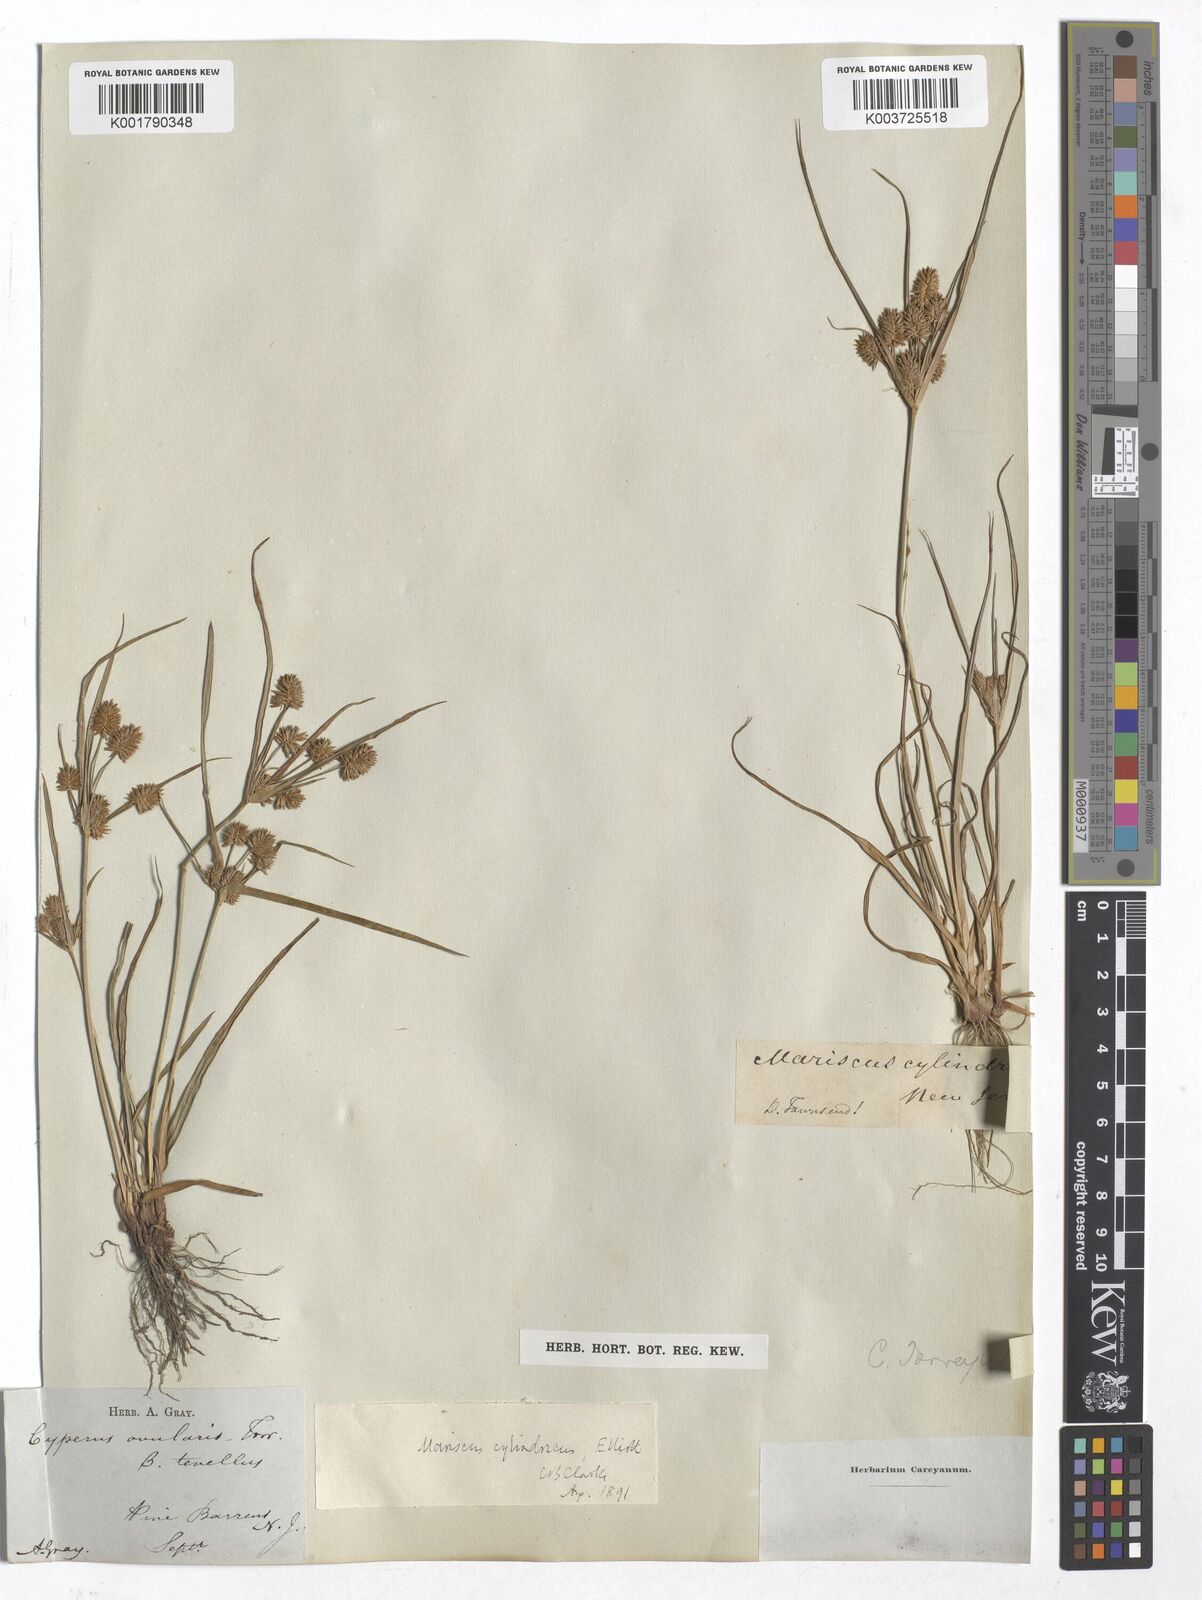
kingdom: Plantae
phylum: Tracheophyta
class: Liliopsida
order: Poales
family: Cyperaceae
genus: Cyperus
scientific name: Cyperus retrorsus
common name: Pinebarren flat sedge
